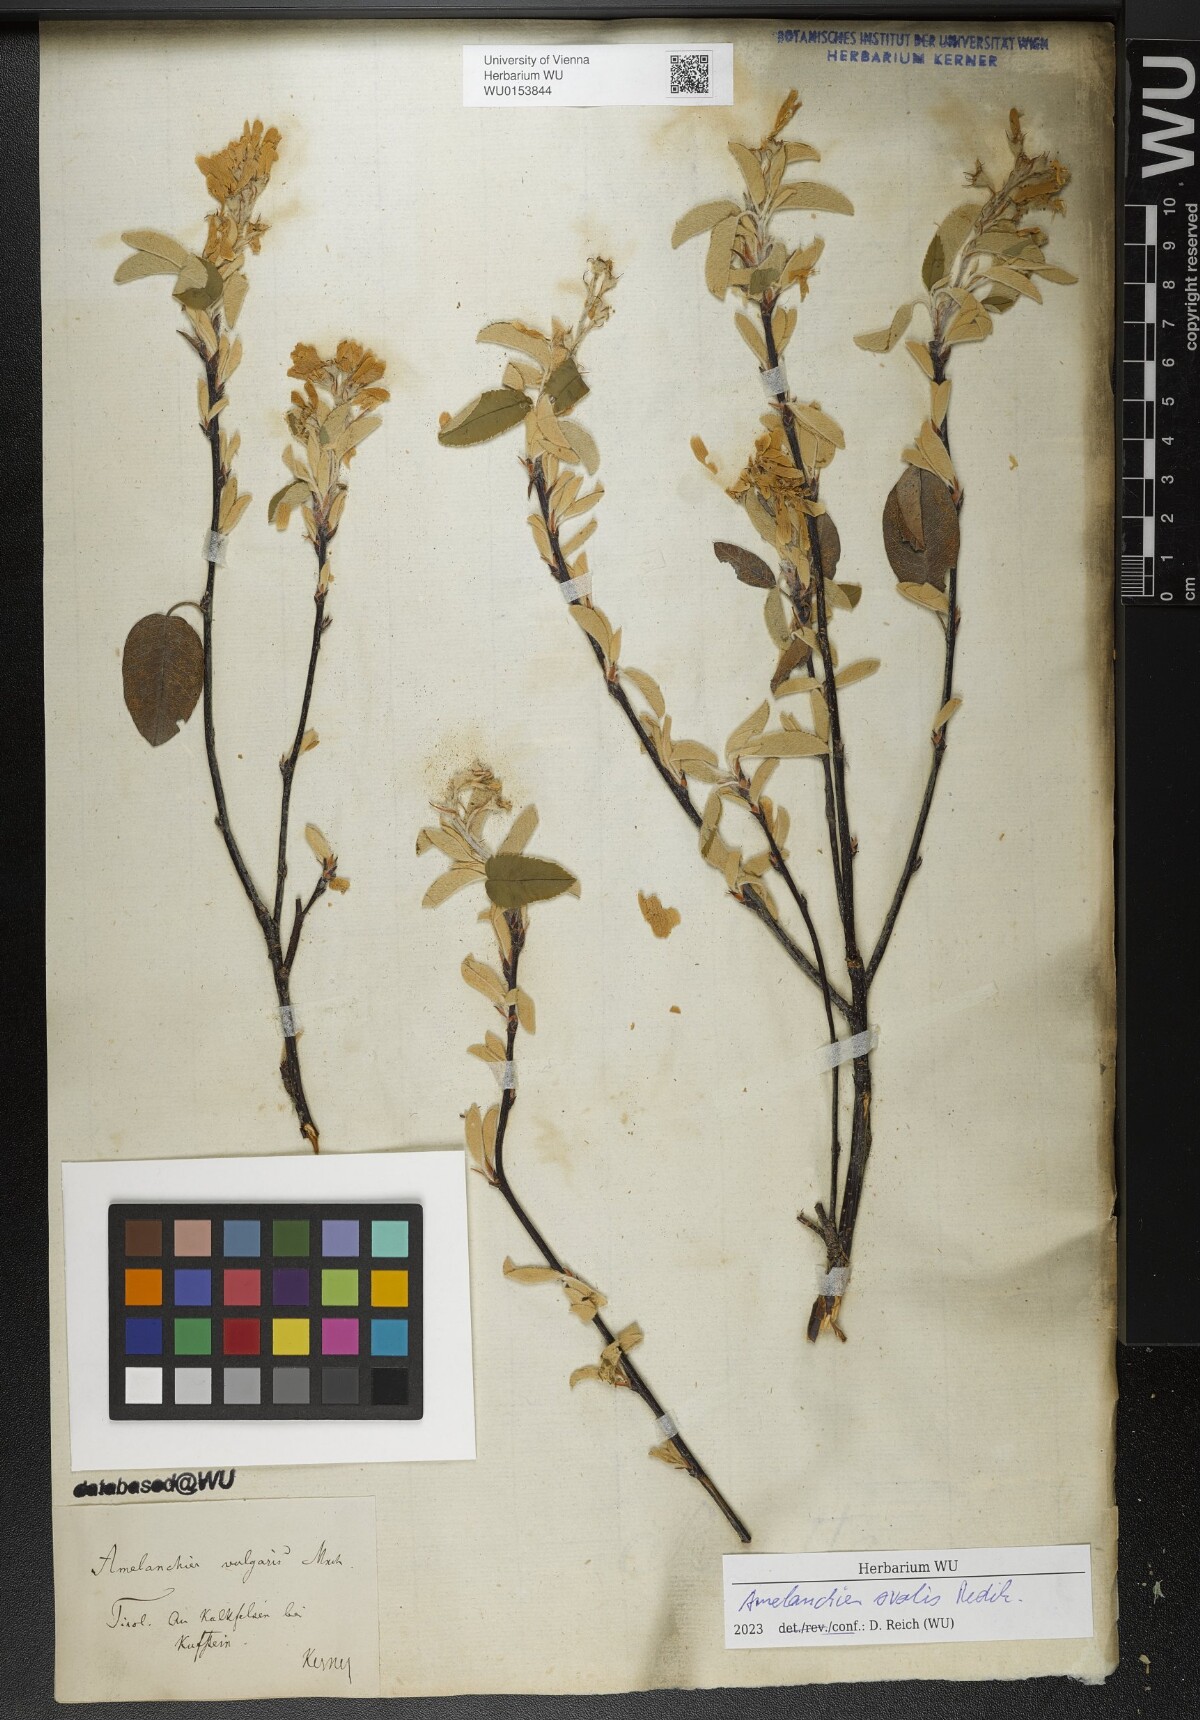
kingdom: Plantae
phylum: Tracheophyta
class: Magnoliopsida
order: Rosales
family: Rosaceae
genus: Amelanchier
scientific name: Amelanchier ovalis
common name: Serviceberry
